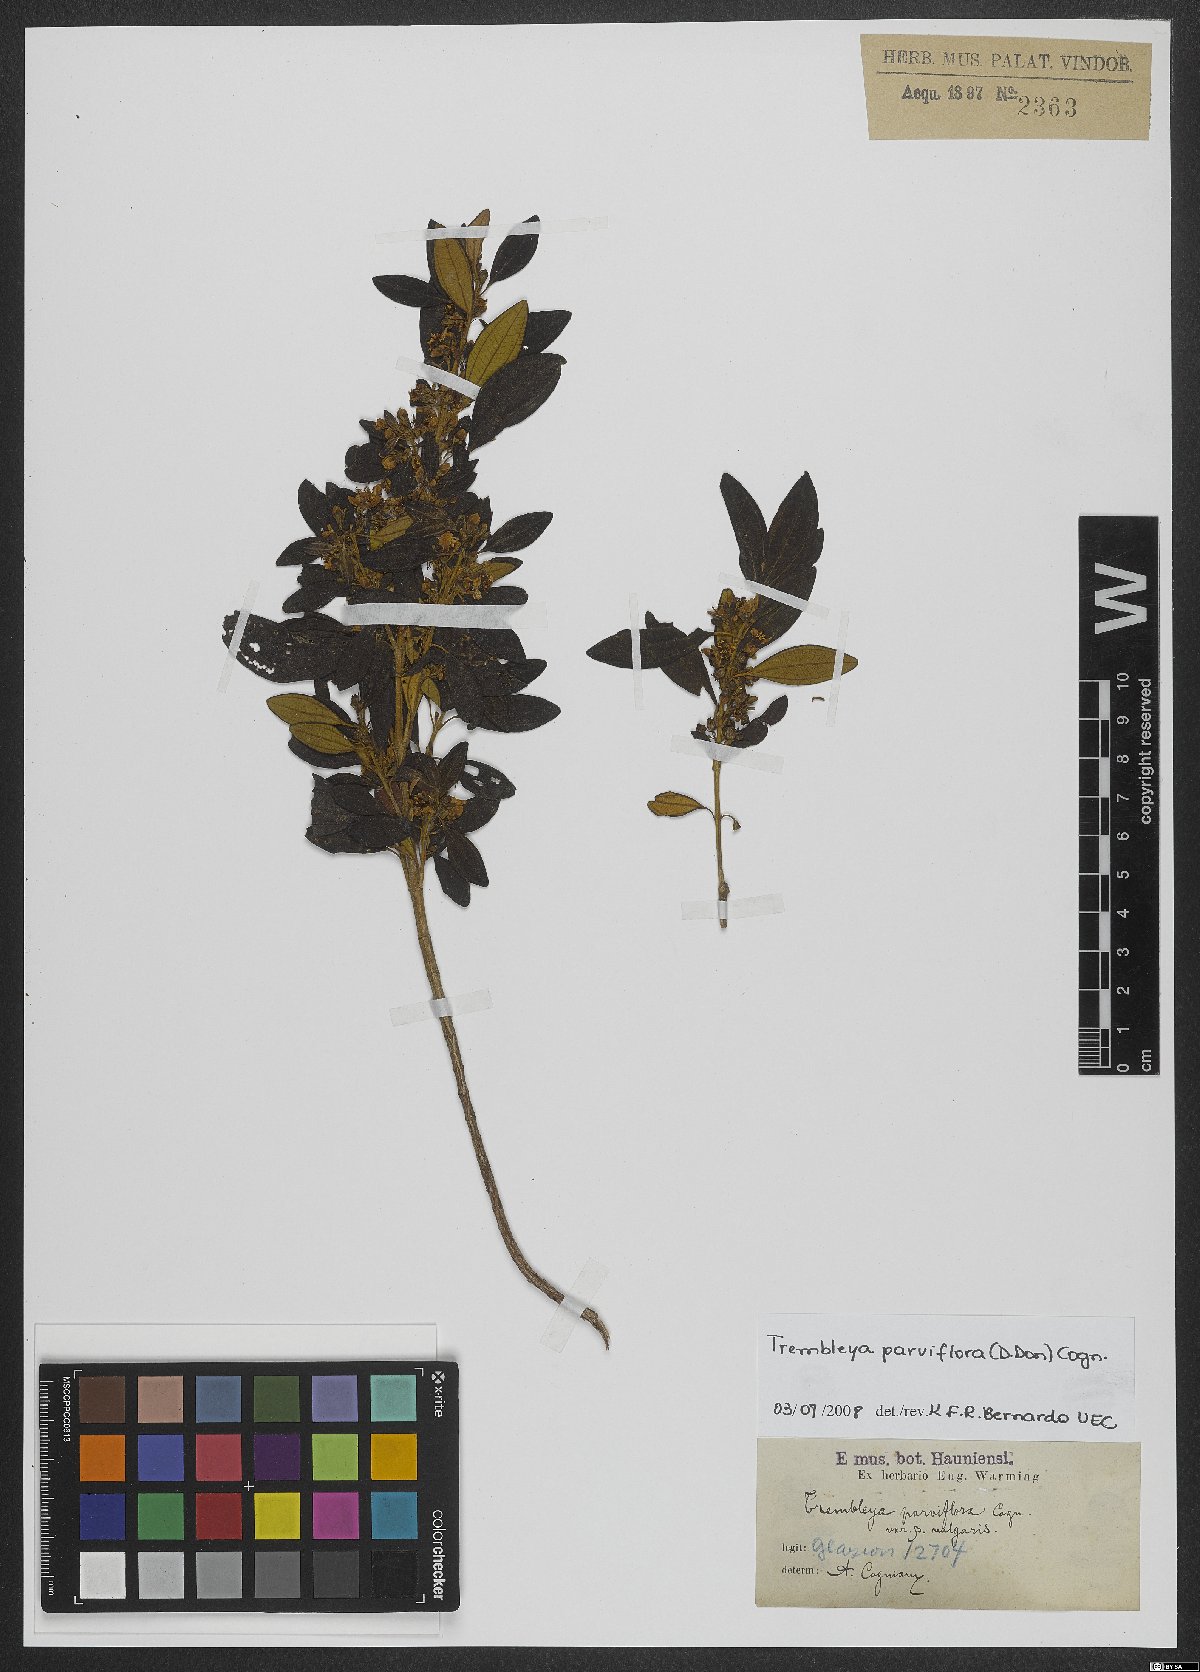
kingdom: Plantae
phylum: Tracheophyta
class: Magnoliopsida
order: Myrtales
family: Melastomataceae
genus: Microlicia
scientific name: Microlicia parviflora
